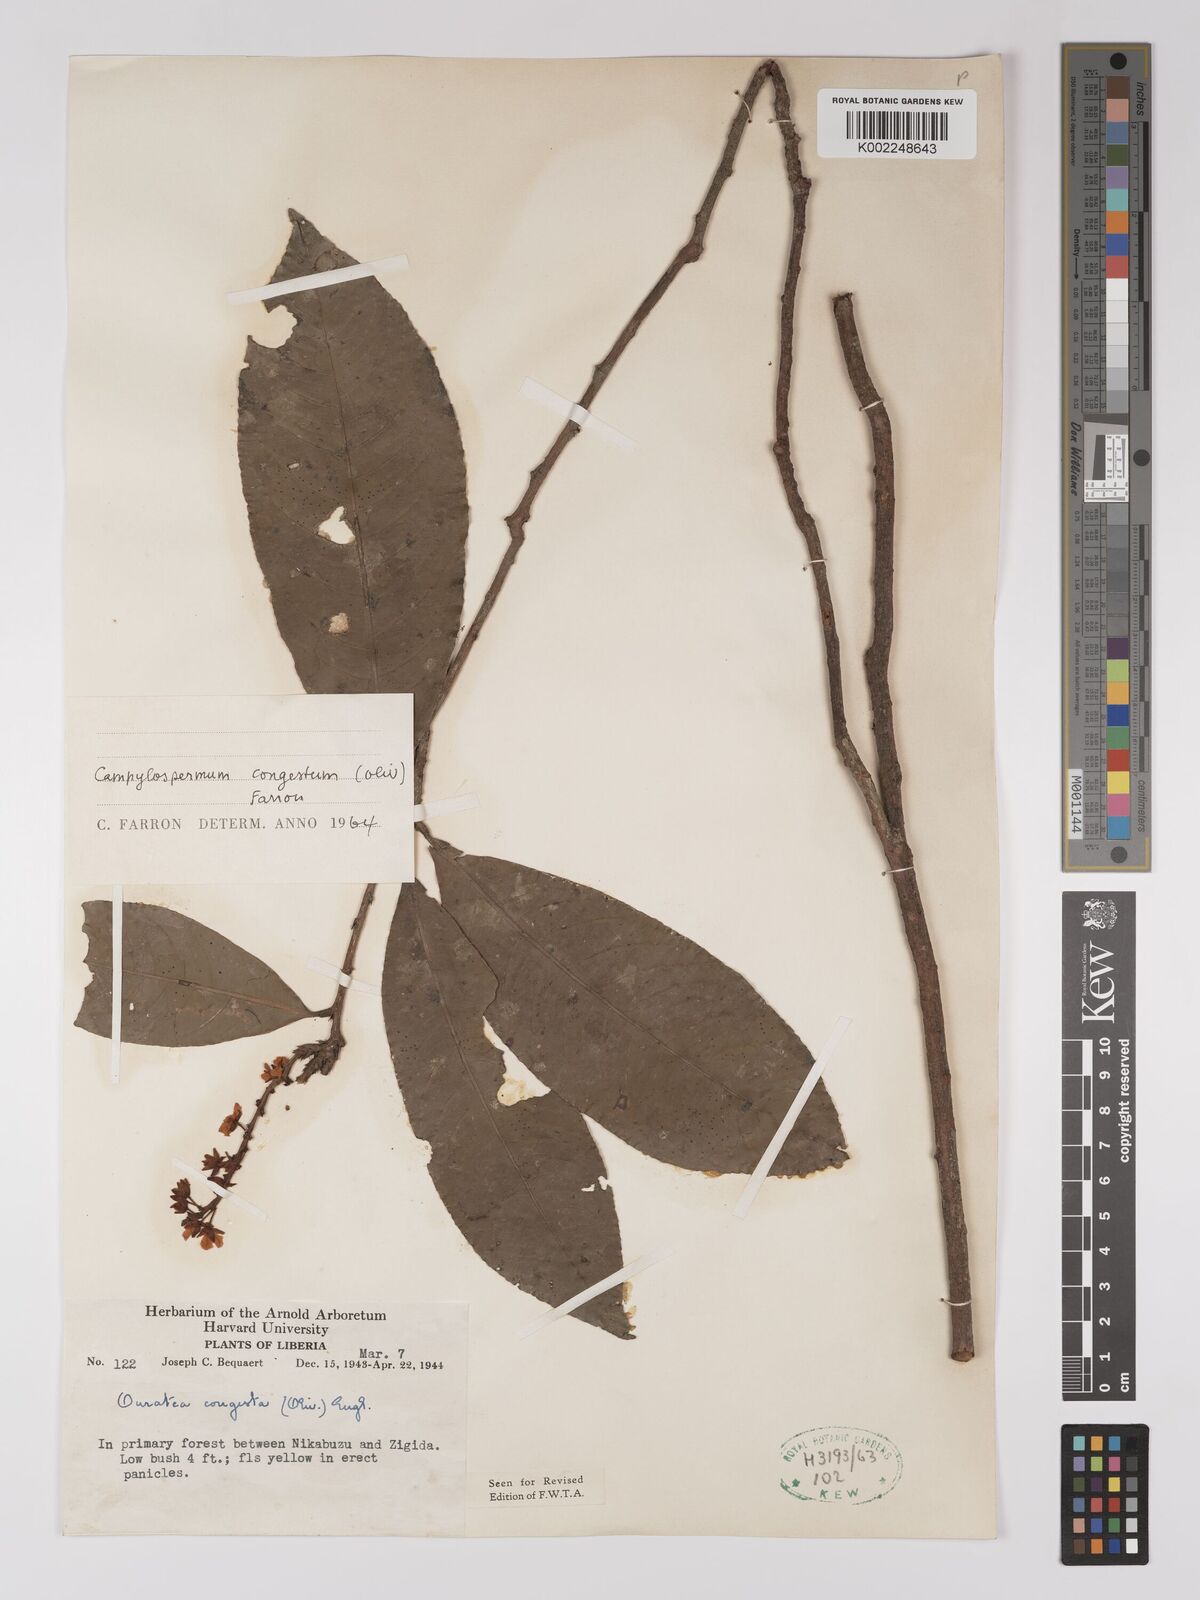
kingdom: Plantae
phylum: Tracheophyta
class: Magnoliopsida
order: Malpighiales
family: Ochnaceae
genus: Campylospermum
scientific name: Campylospermum congestum
